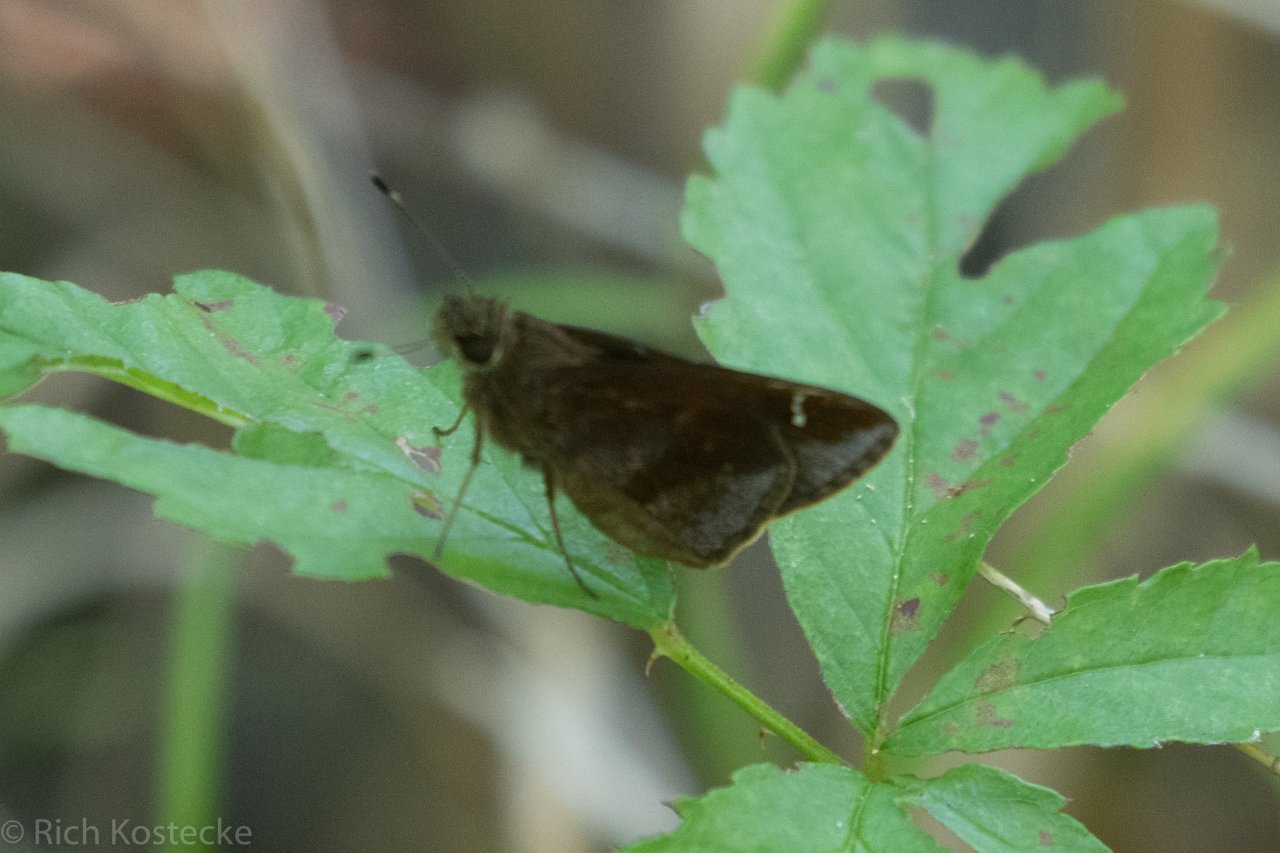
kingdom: Animalia
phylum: Arthropoda
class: Insecta
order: Lepidoptera
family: Hesperiidae
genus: Lerema
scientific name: Lerema accius
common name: Clouded Skipper
